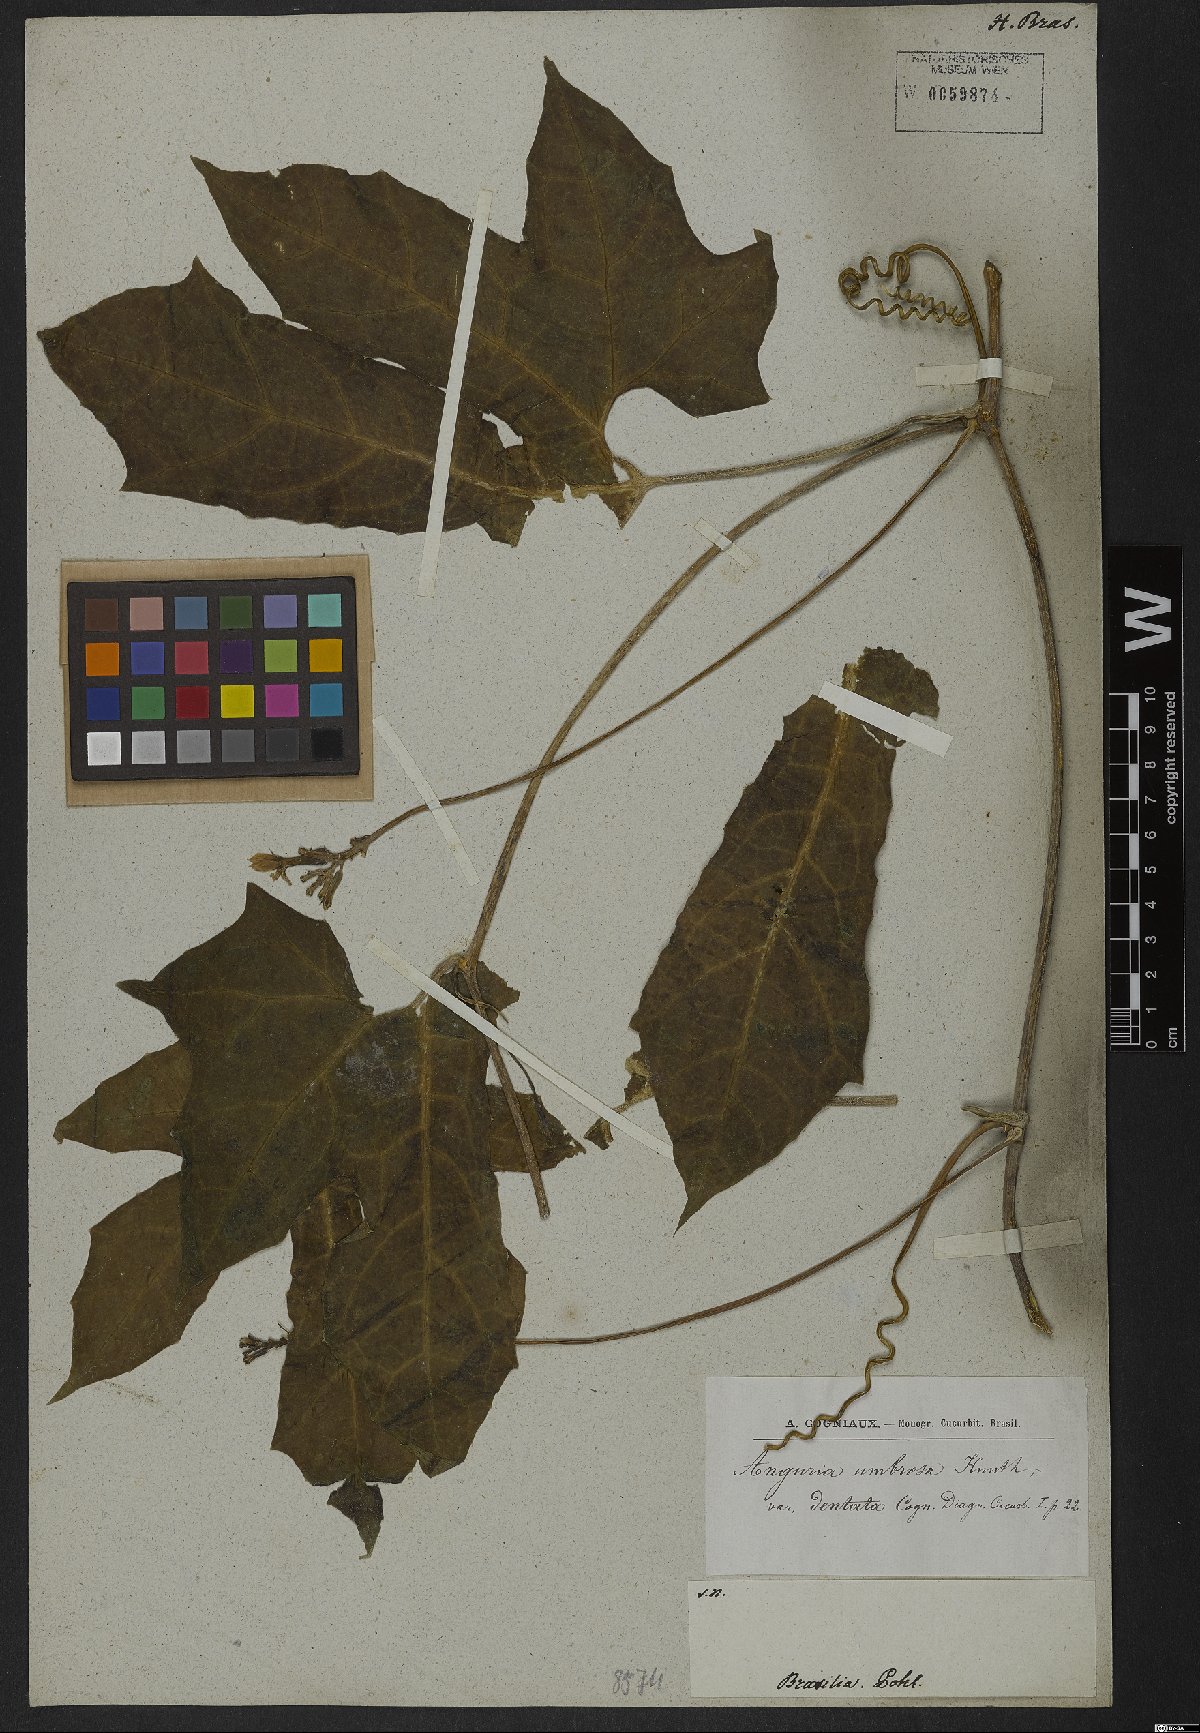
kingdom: Plantae
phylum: Tracheophyta
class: Magnoliopsida
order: Cucurbitales
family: Cucurbitaceae
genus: Psiguria
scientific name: Psiguria umbrosa
